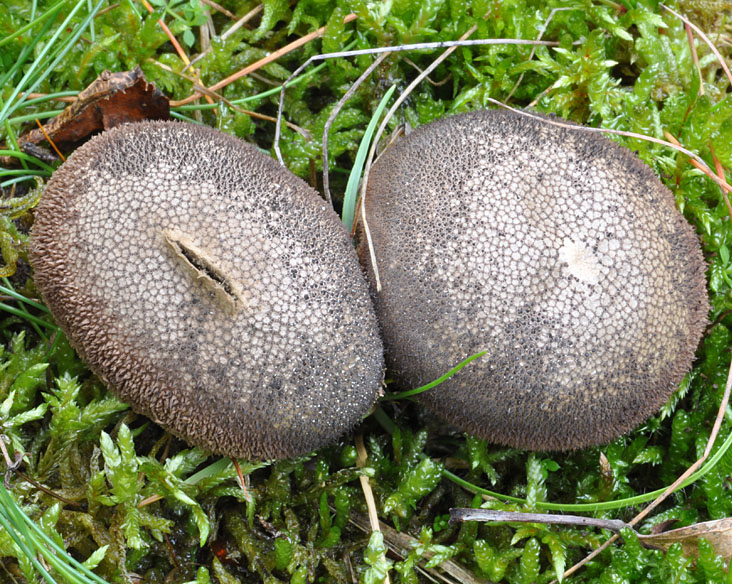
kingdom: Fungi
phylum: Basidiomycota
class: Agaricomycetes
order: Agaricales
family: Lycoperdaceae
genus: Lycoperdon
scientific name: Lycoperdon nigrescens
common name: sortagtig støvbold
